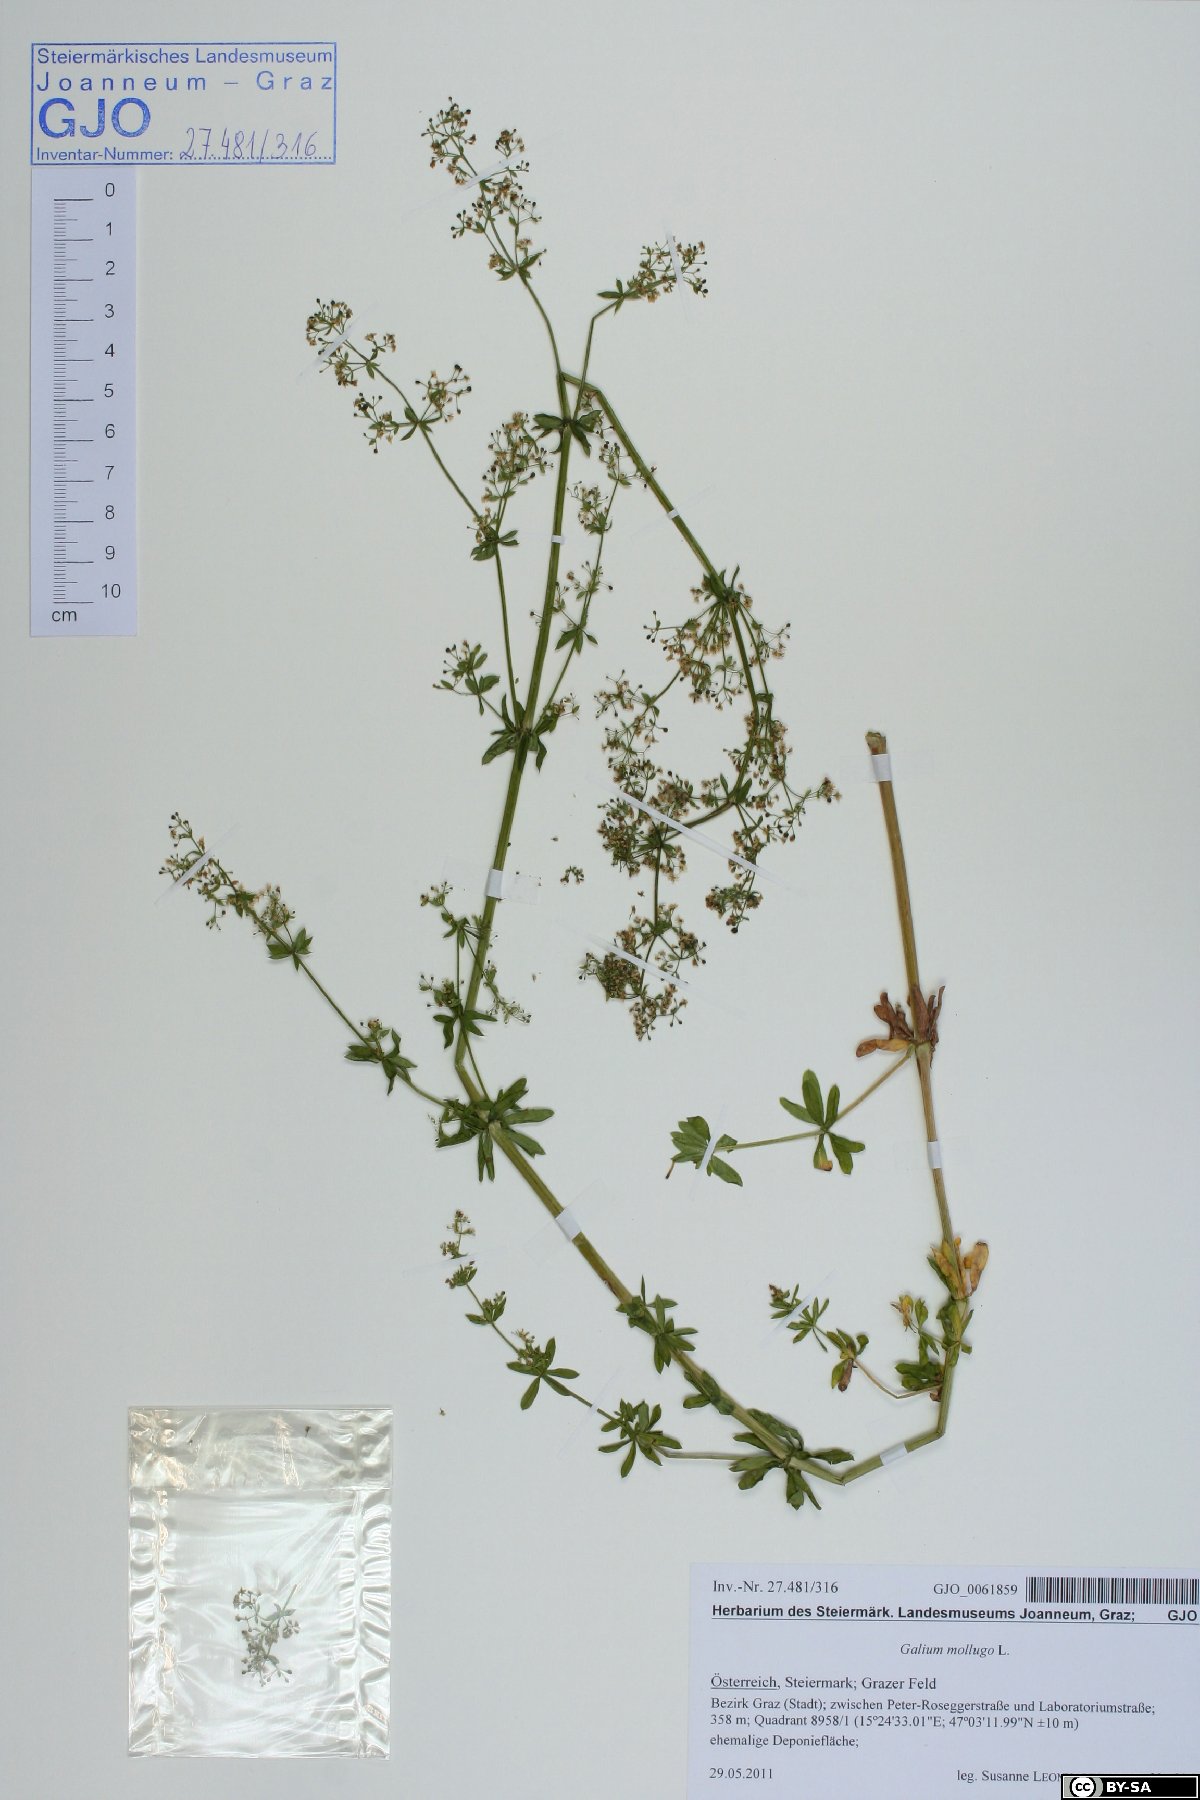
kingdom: Plantae
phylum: Tracheophyta
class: Magnoliopsida
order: Gentianales
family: Rubiaceae
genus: Galium
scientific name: Galium mollugo
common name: Hedge bedstraw
